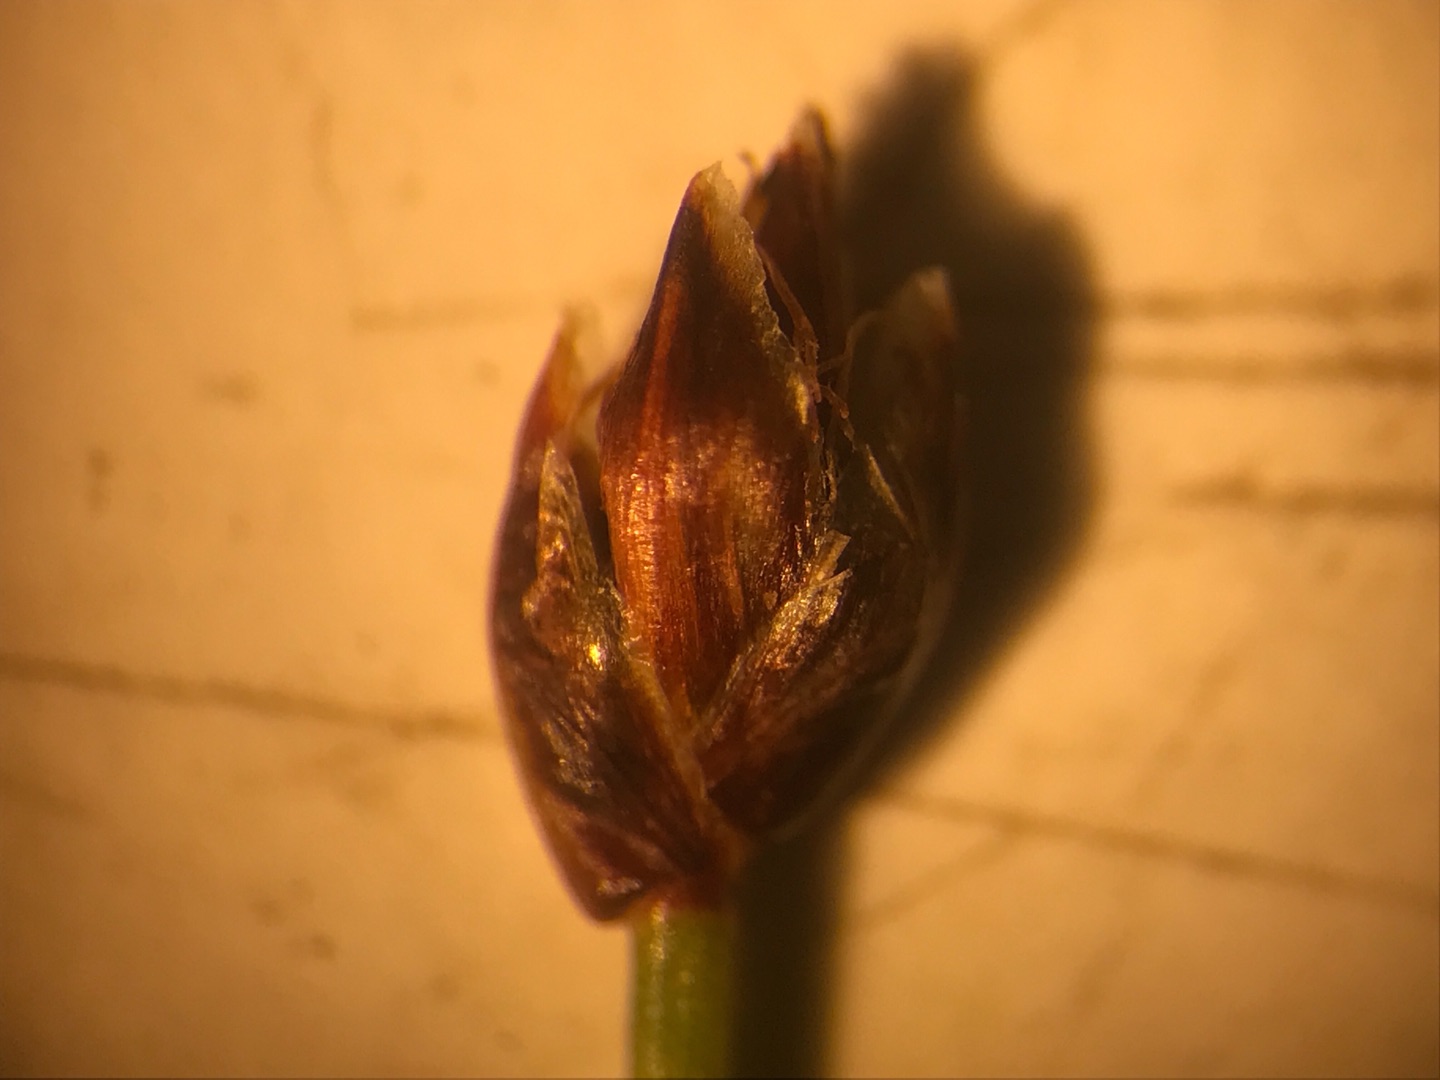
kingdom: Plantae
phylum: Tracheophyta
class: Liliopsida
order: Poales
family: Cyperaceae
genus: Eleocharis
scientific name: Eleocharis quinqueflora
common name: Fåblomstret kogleaks
